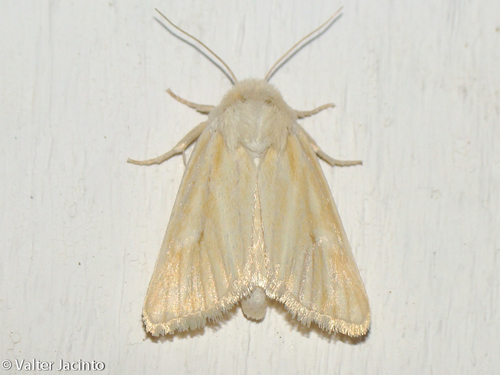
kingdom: Animalia
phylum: Arthropoda
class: Insecta
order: Lepidoptera
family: Noctuidae
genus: Oria
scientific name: Oria musculosa
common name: Brighton wainscot
